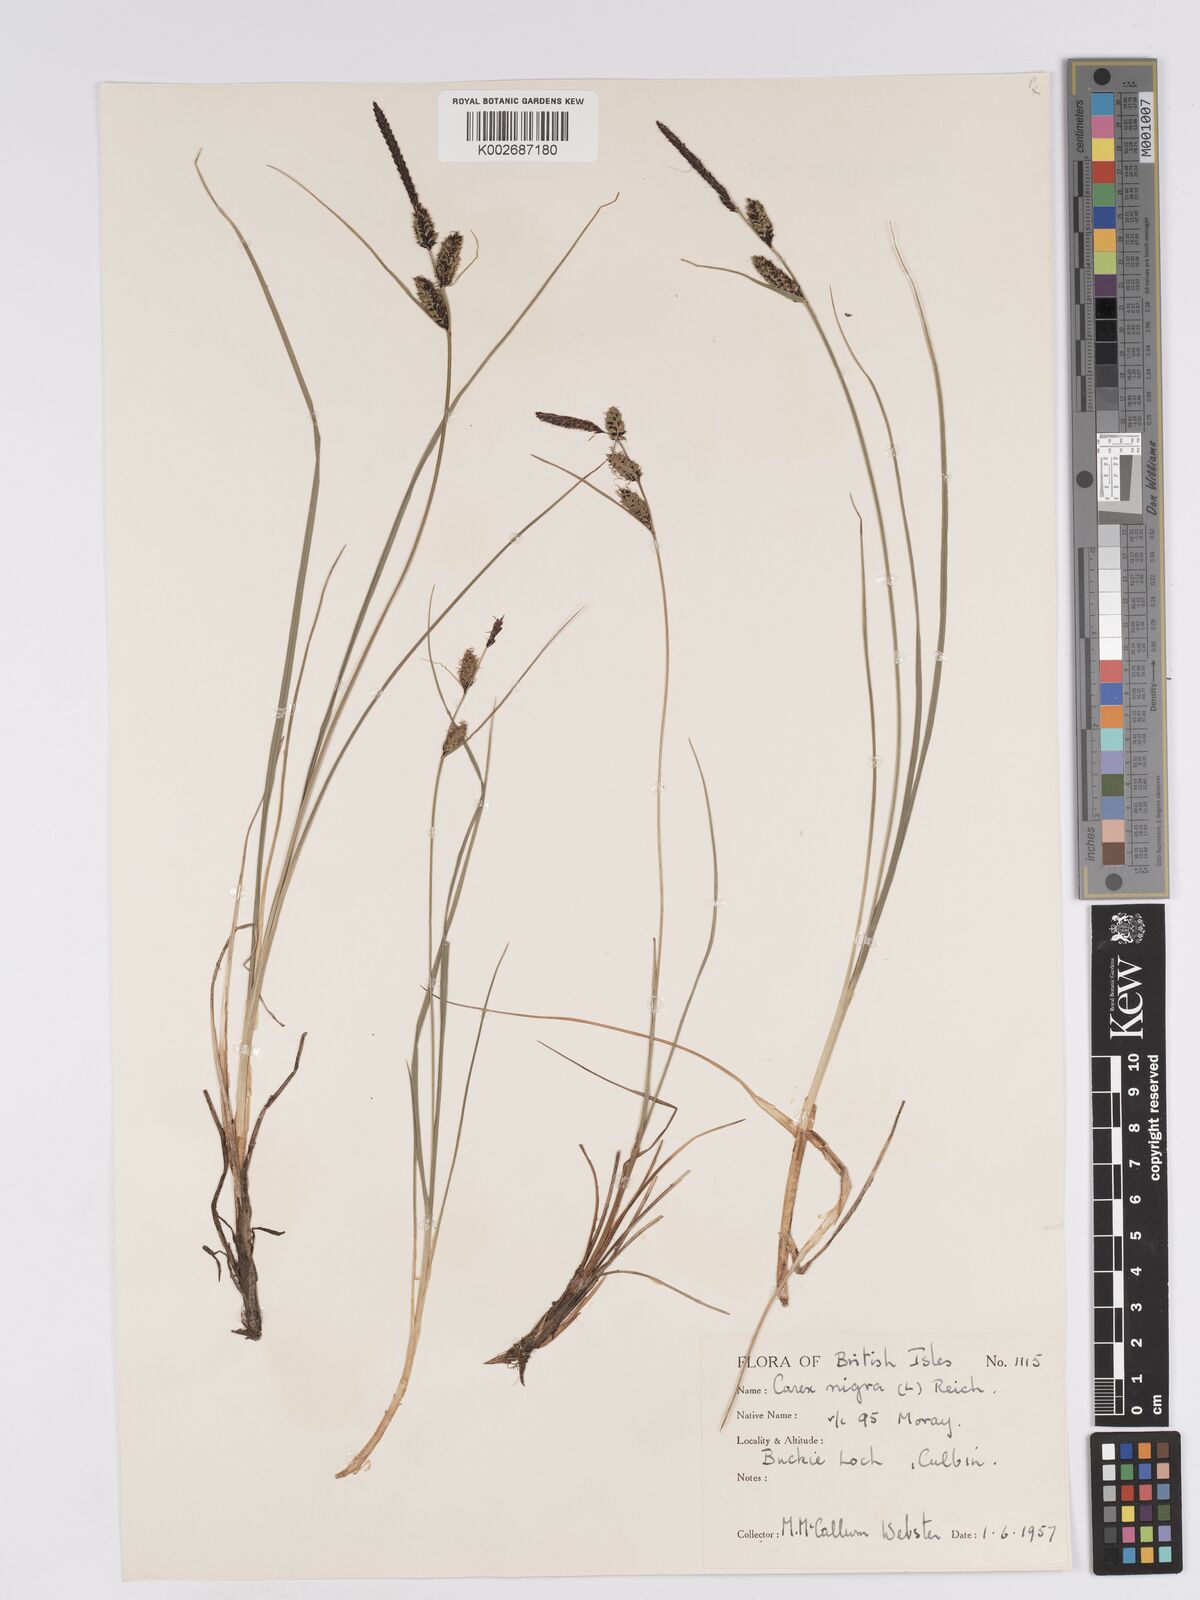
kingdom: Plantae
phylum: Tracheophyta
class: Liliopsida
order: Poales
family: Cyperaceae
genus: Carex
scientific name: Carex nigra
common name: Common sedge
